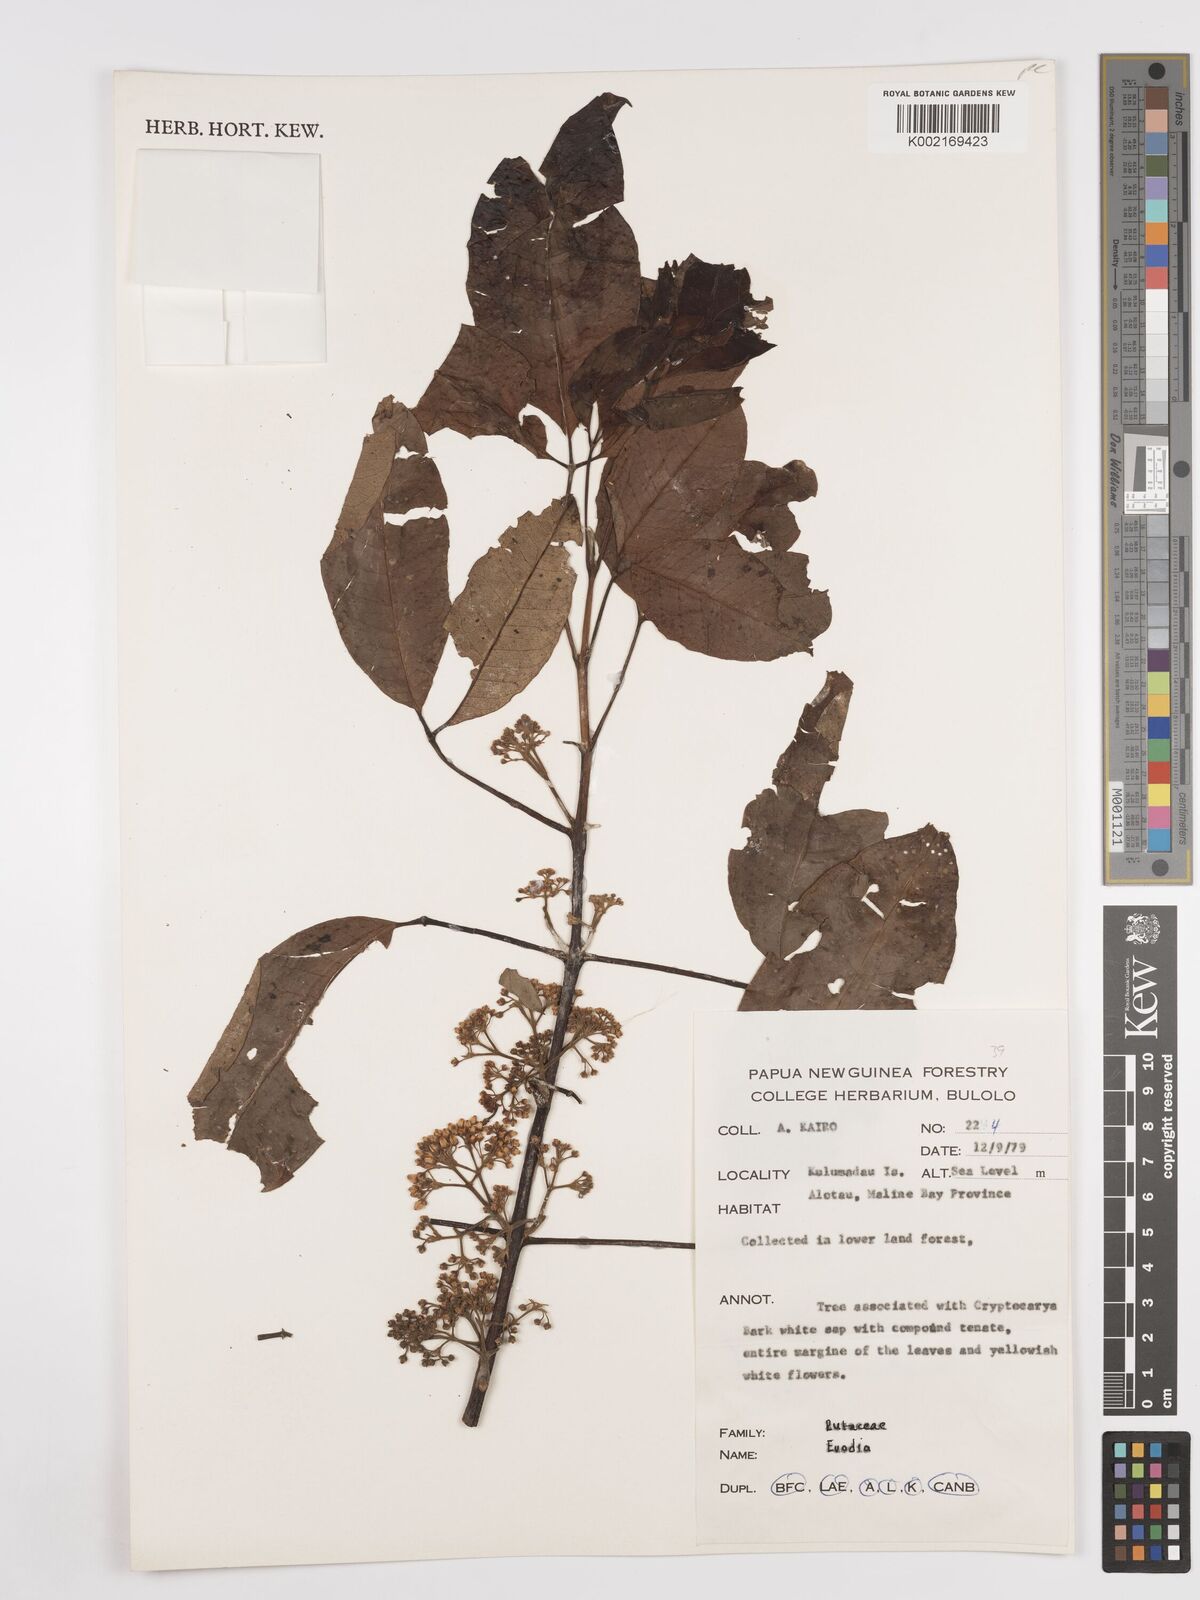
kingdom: Plantae
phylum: Tracheophyta
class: Magnoliopsida
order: Sapindales
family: Rutaceae
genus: Euodia
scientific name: Euodia
